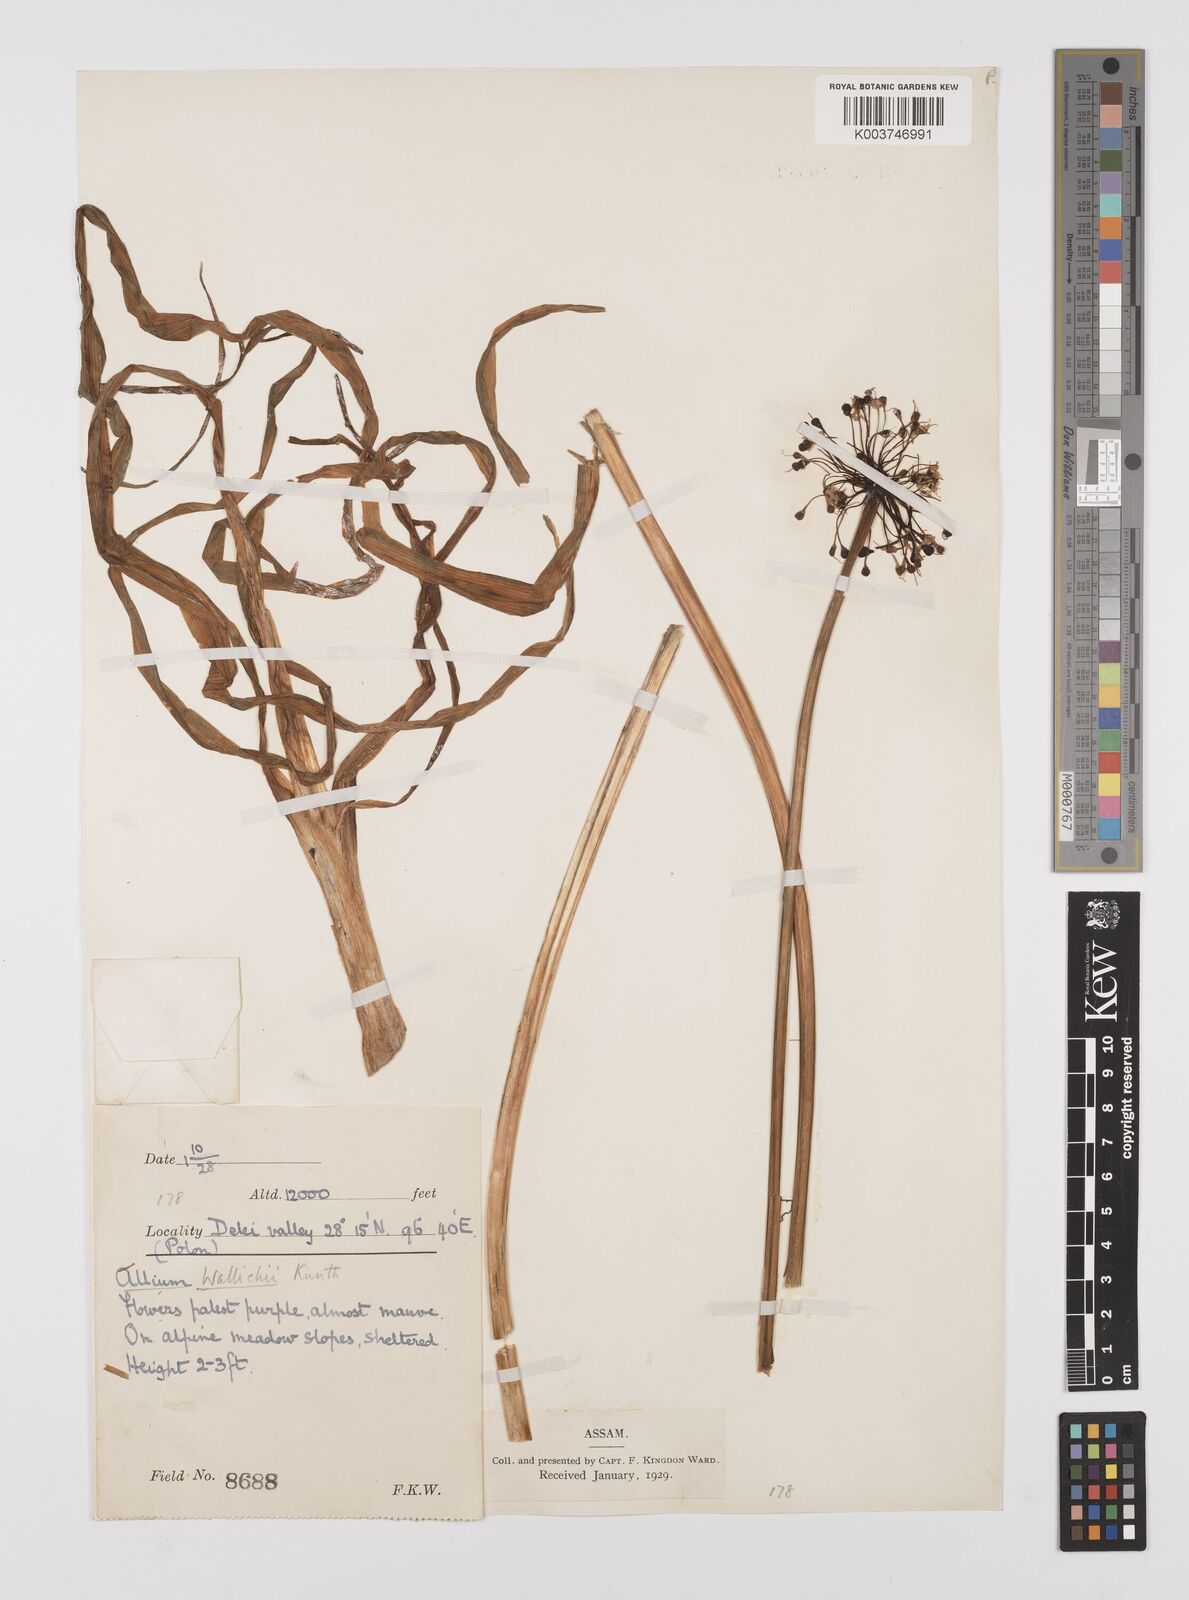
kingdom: Plantae
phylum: Tracheophyta
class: Liliopsida
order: Asparagales
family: Amaryllidaceae
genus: Allium
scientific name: Allium wallichii
